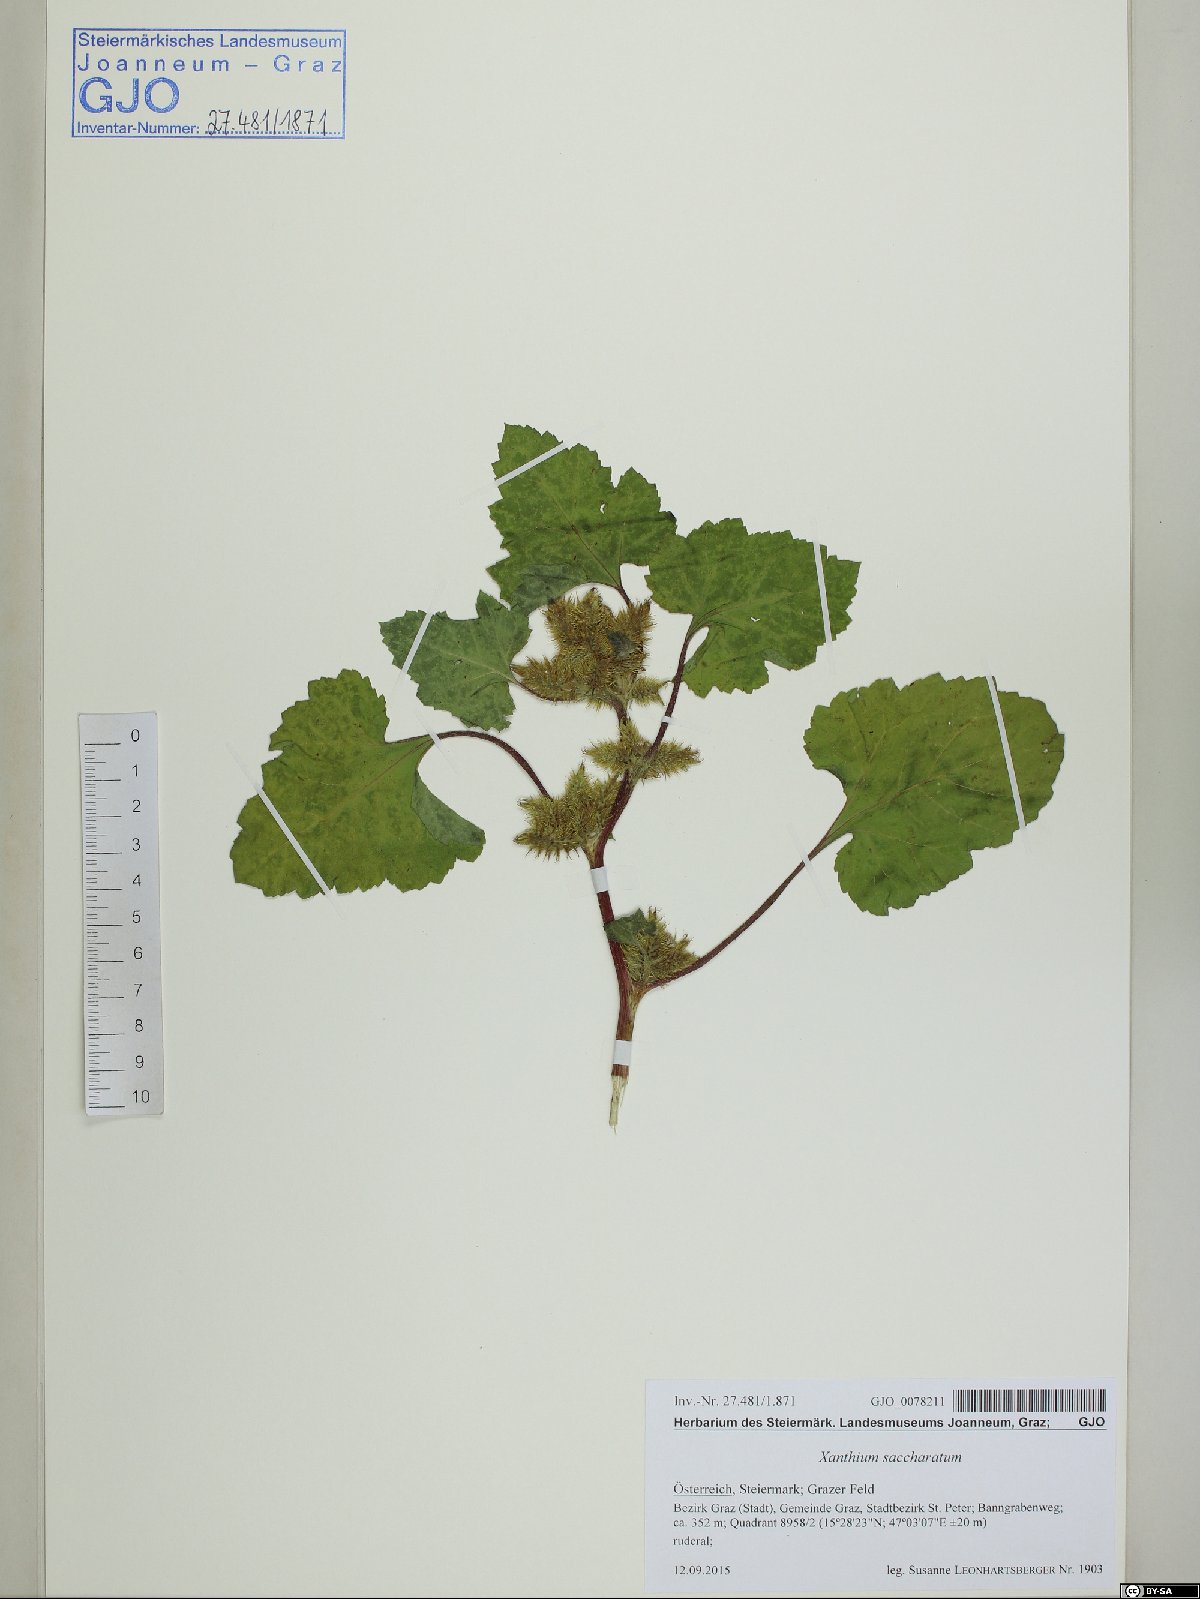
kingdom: Plantae
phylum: Tracheophyta
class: Magnoliopsida
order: Asterales
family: Asteraceae
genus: Xanthium
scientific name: Xanthium orientale
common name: Californian burr
